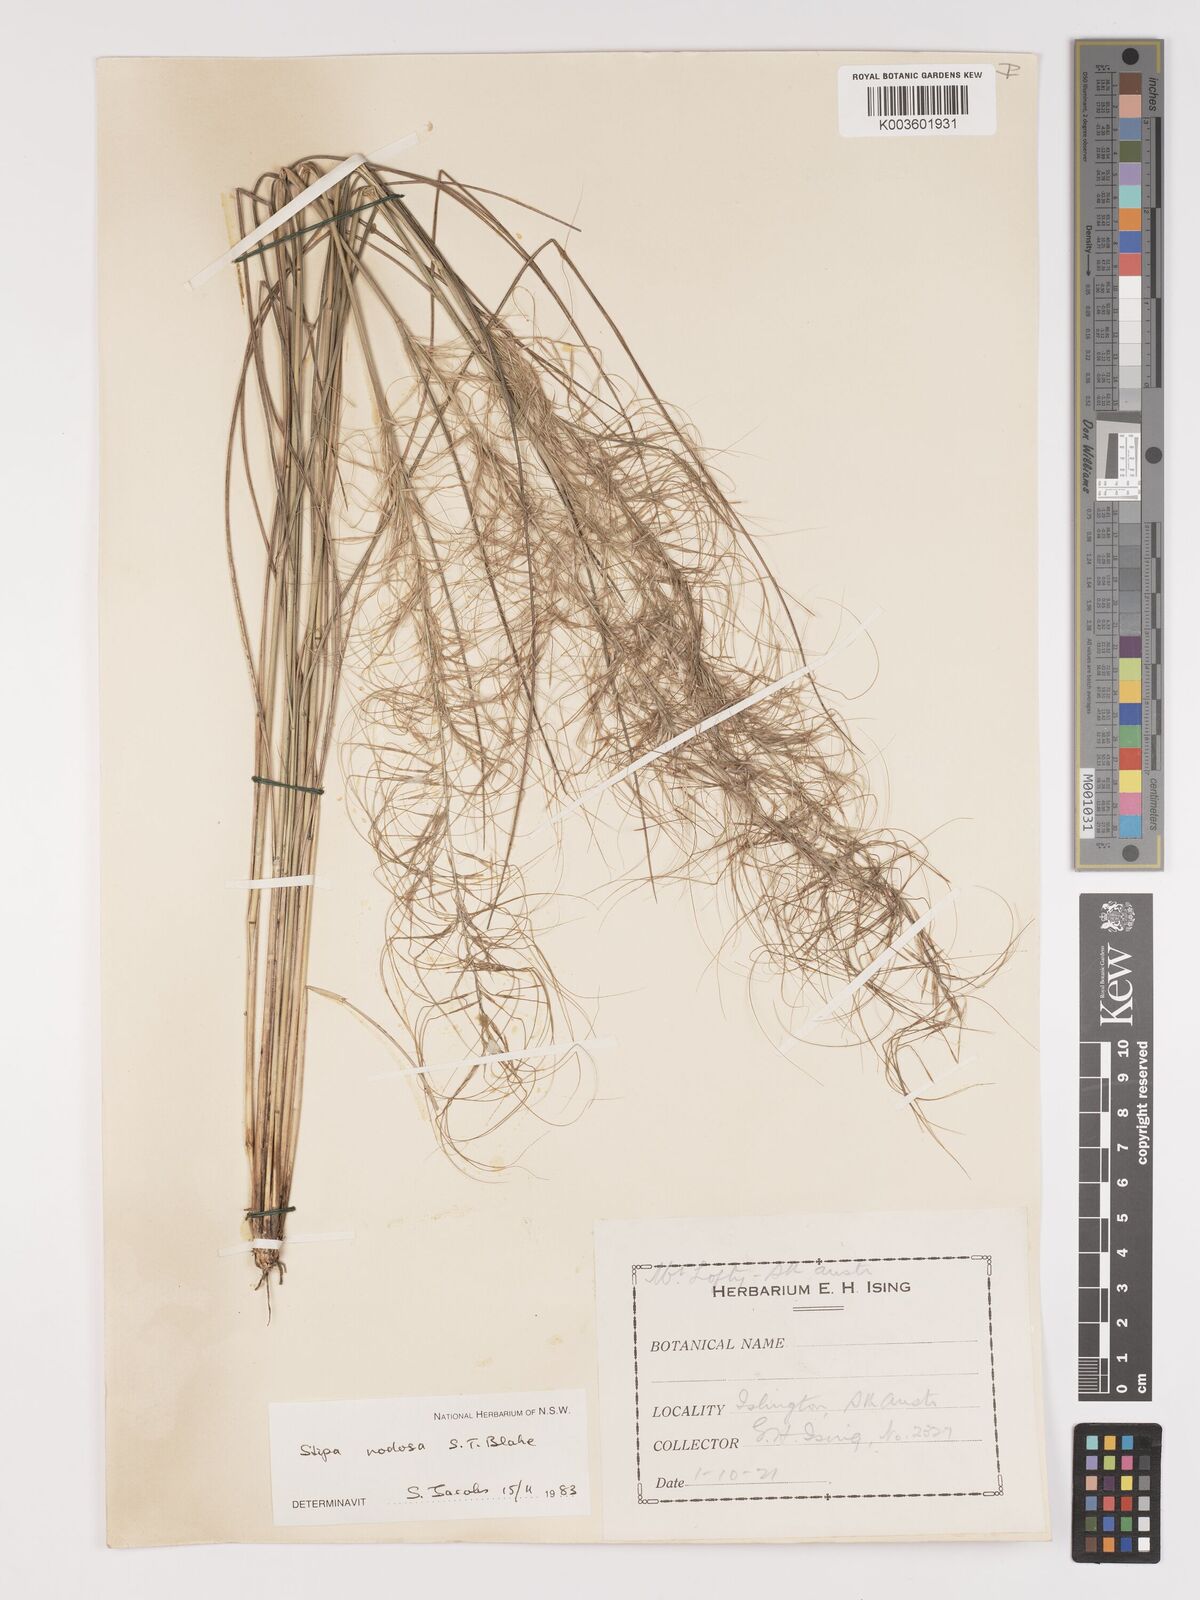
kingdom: Plantae
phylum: Tracheophyta
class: Liliopsida
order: Poales
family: Poaceae
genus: Austrostipa
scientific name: Austrostipa nodosa
